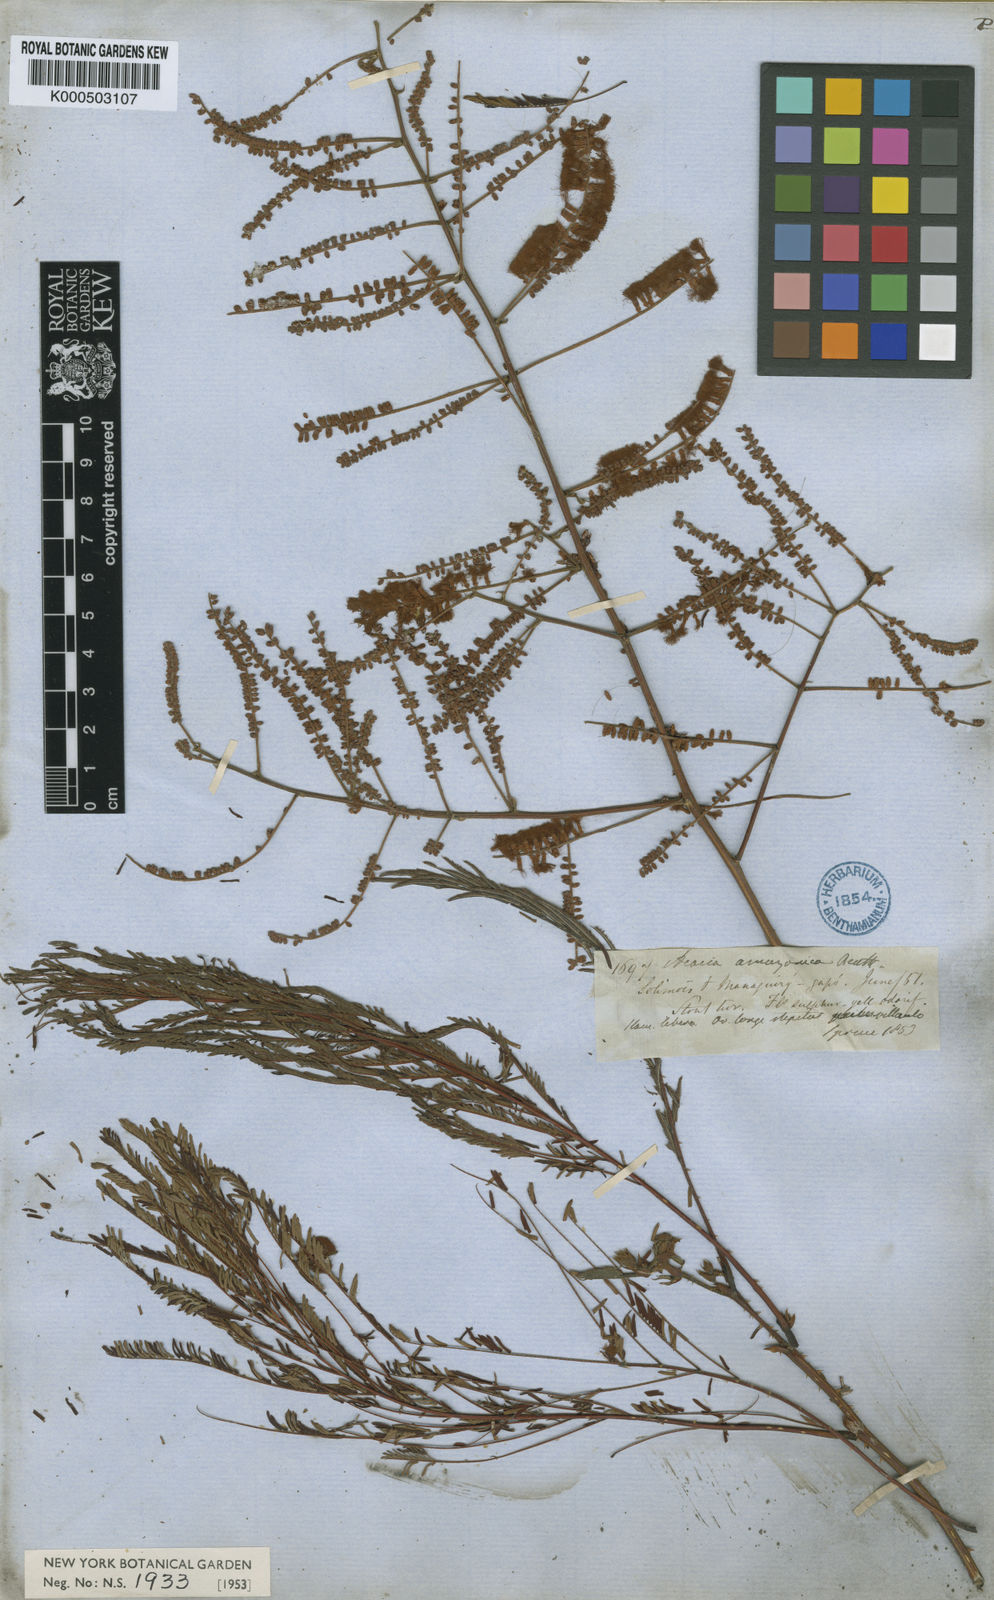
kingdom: Plantae
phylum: Tracheophyta
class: Magnoliopsida
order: Fabales
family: Fabaceae
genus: Senegalia
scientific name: Senegalia amazonica
